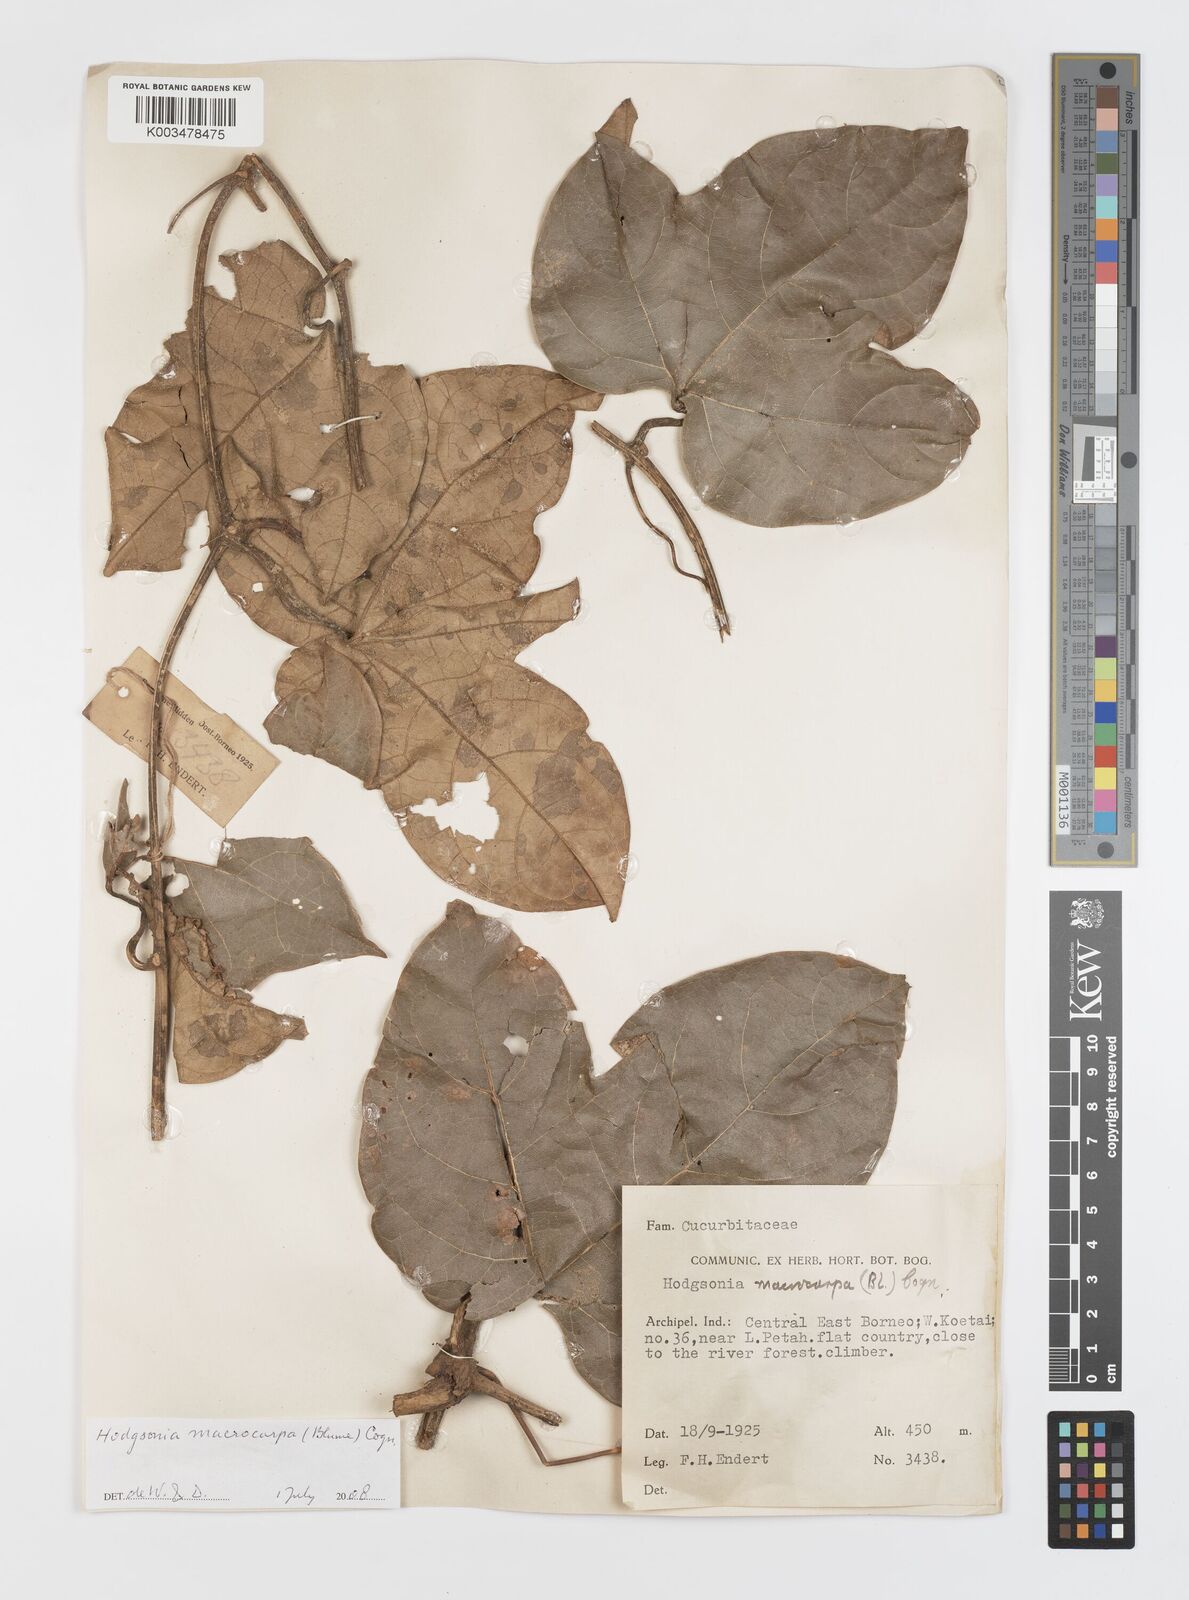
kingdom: Plantae
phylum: Tracheophyta
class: Magnoliopsida
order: Cucurbitales
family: Cucurbitaceae
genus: Hodgsonia
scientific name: Hodgsonia macrocarpa
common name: Chinese lardfruit
